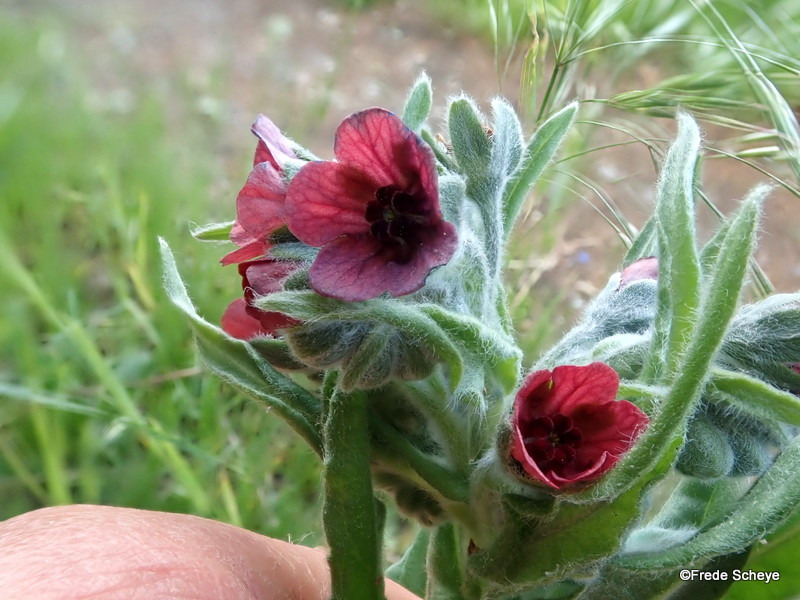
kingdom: Plantae
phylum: Tracheophyta
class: Magnoliopsida
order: Boraginales
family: Boraginaceae
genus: Cynoglossum
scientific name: Cynoglossum officinale
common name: Hundetunge
